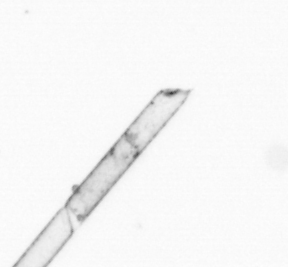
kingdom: Chromista
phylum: Ochrophyta
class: Bacillariophyceae
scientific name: Bacillariophyceae
